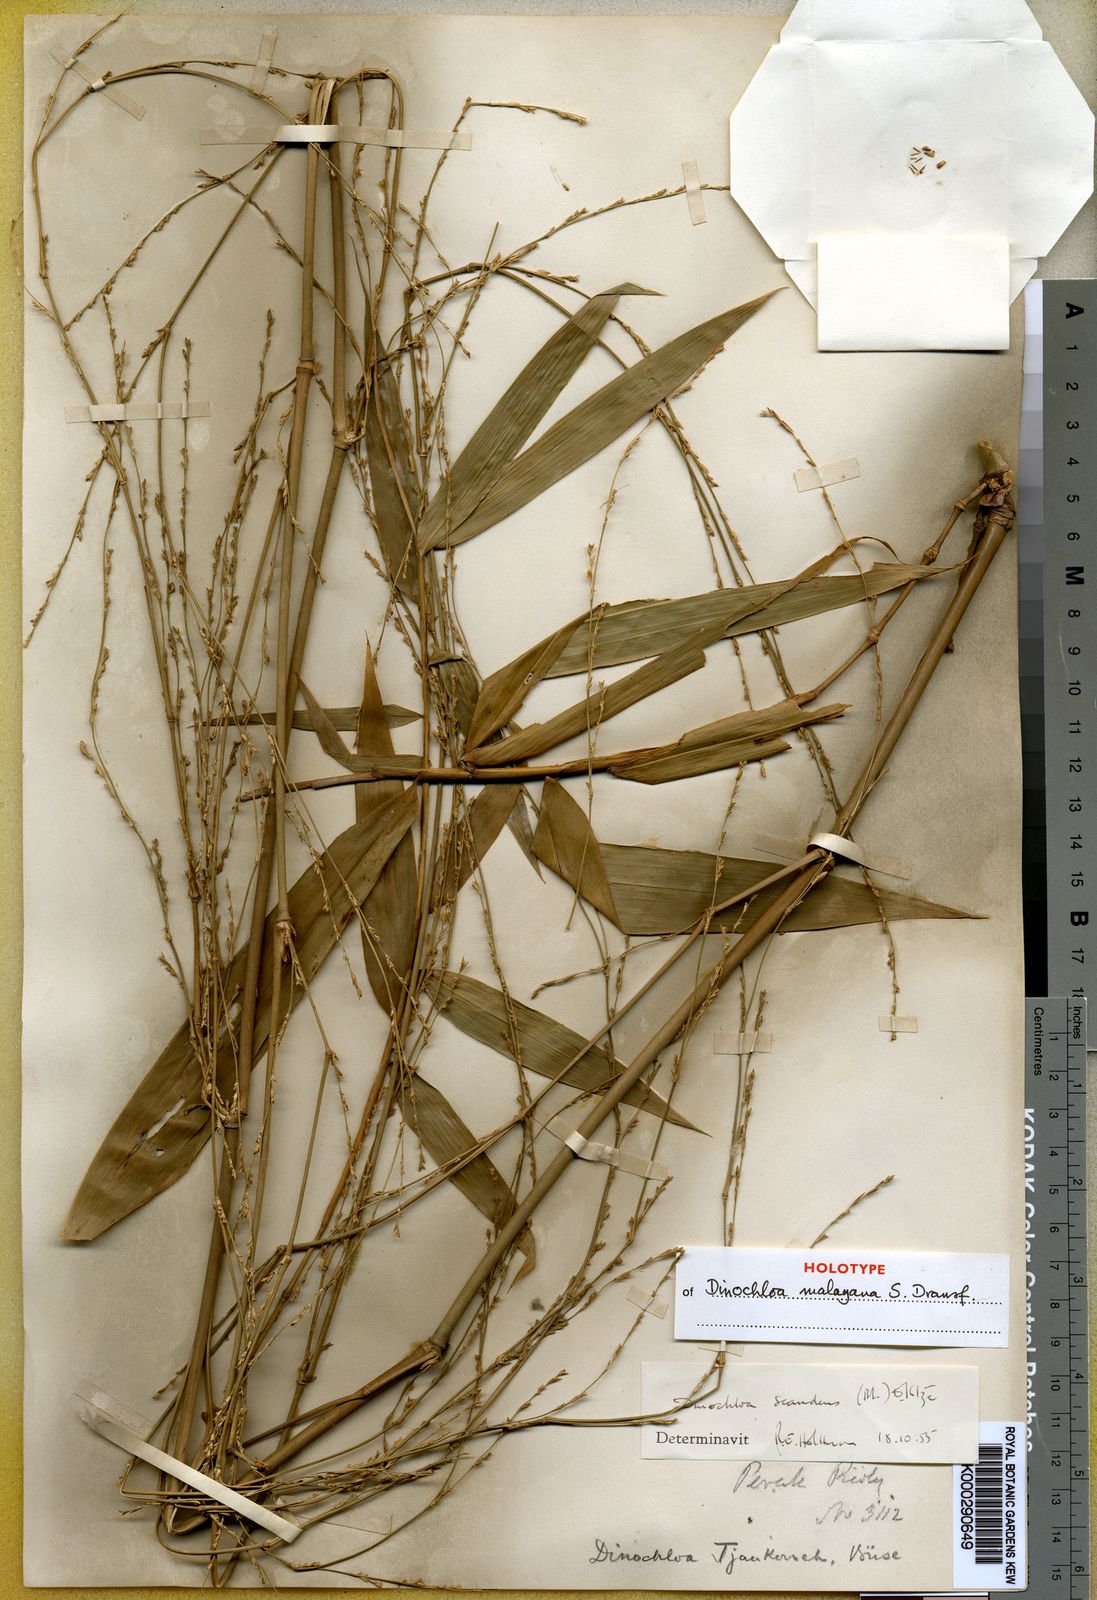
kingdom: Plantae
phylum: Tracheophyta
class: Liliopsida
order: Poales
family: Poaceae
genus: Dinochloa
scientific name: Dinochloa malayana
